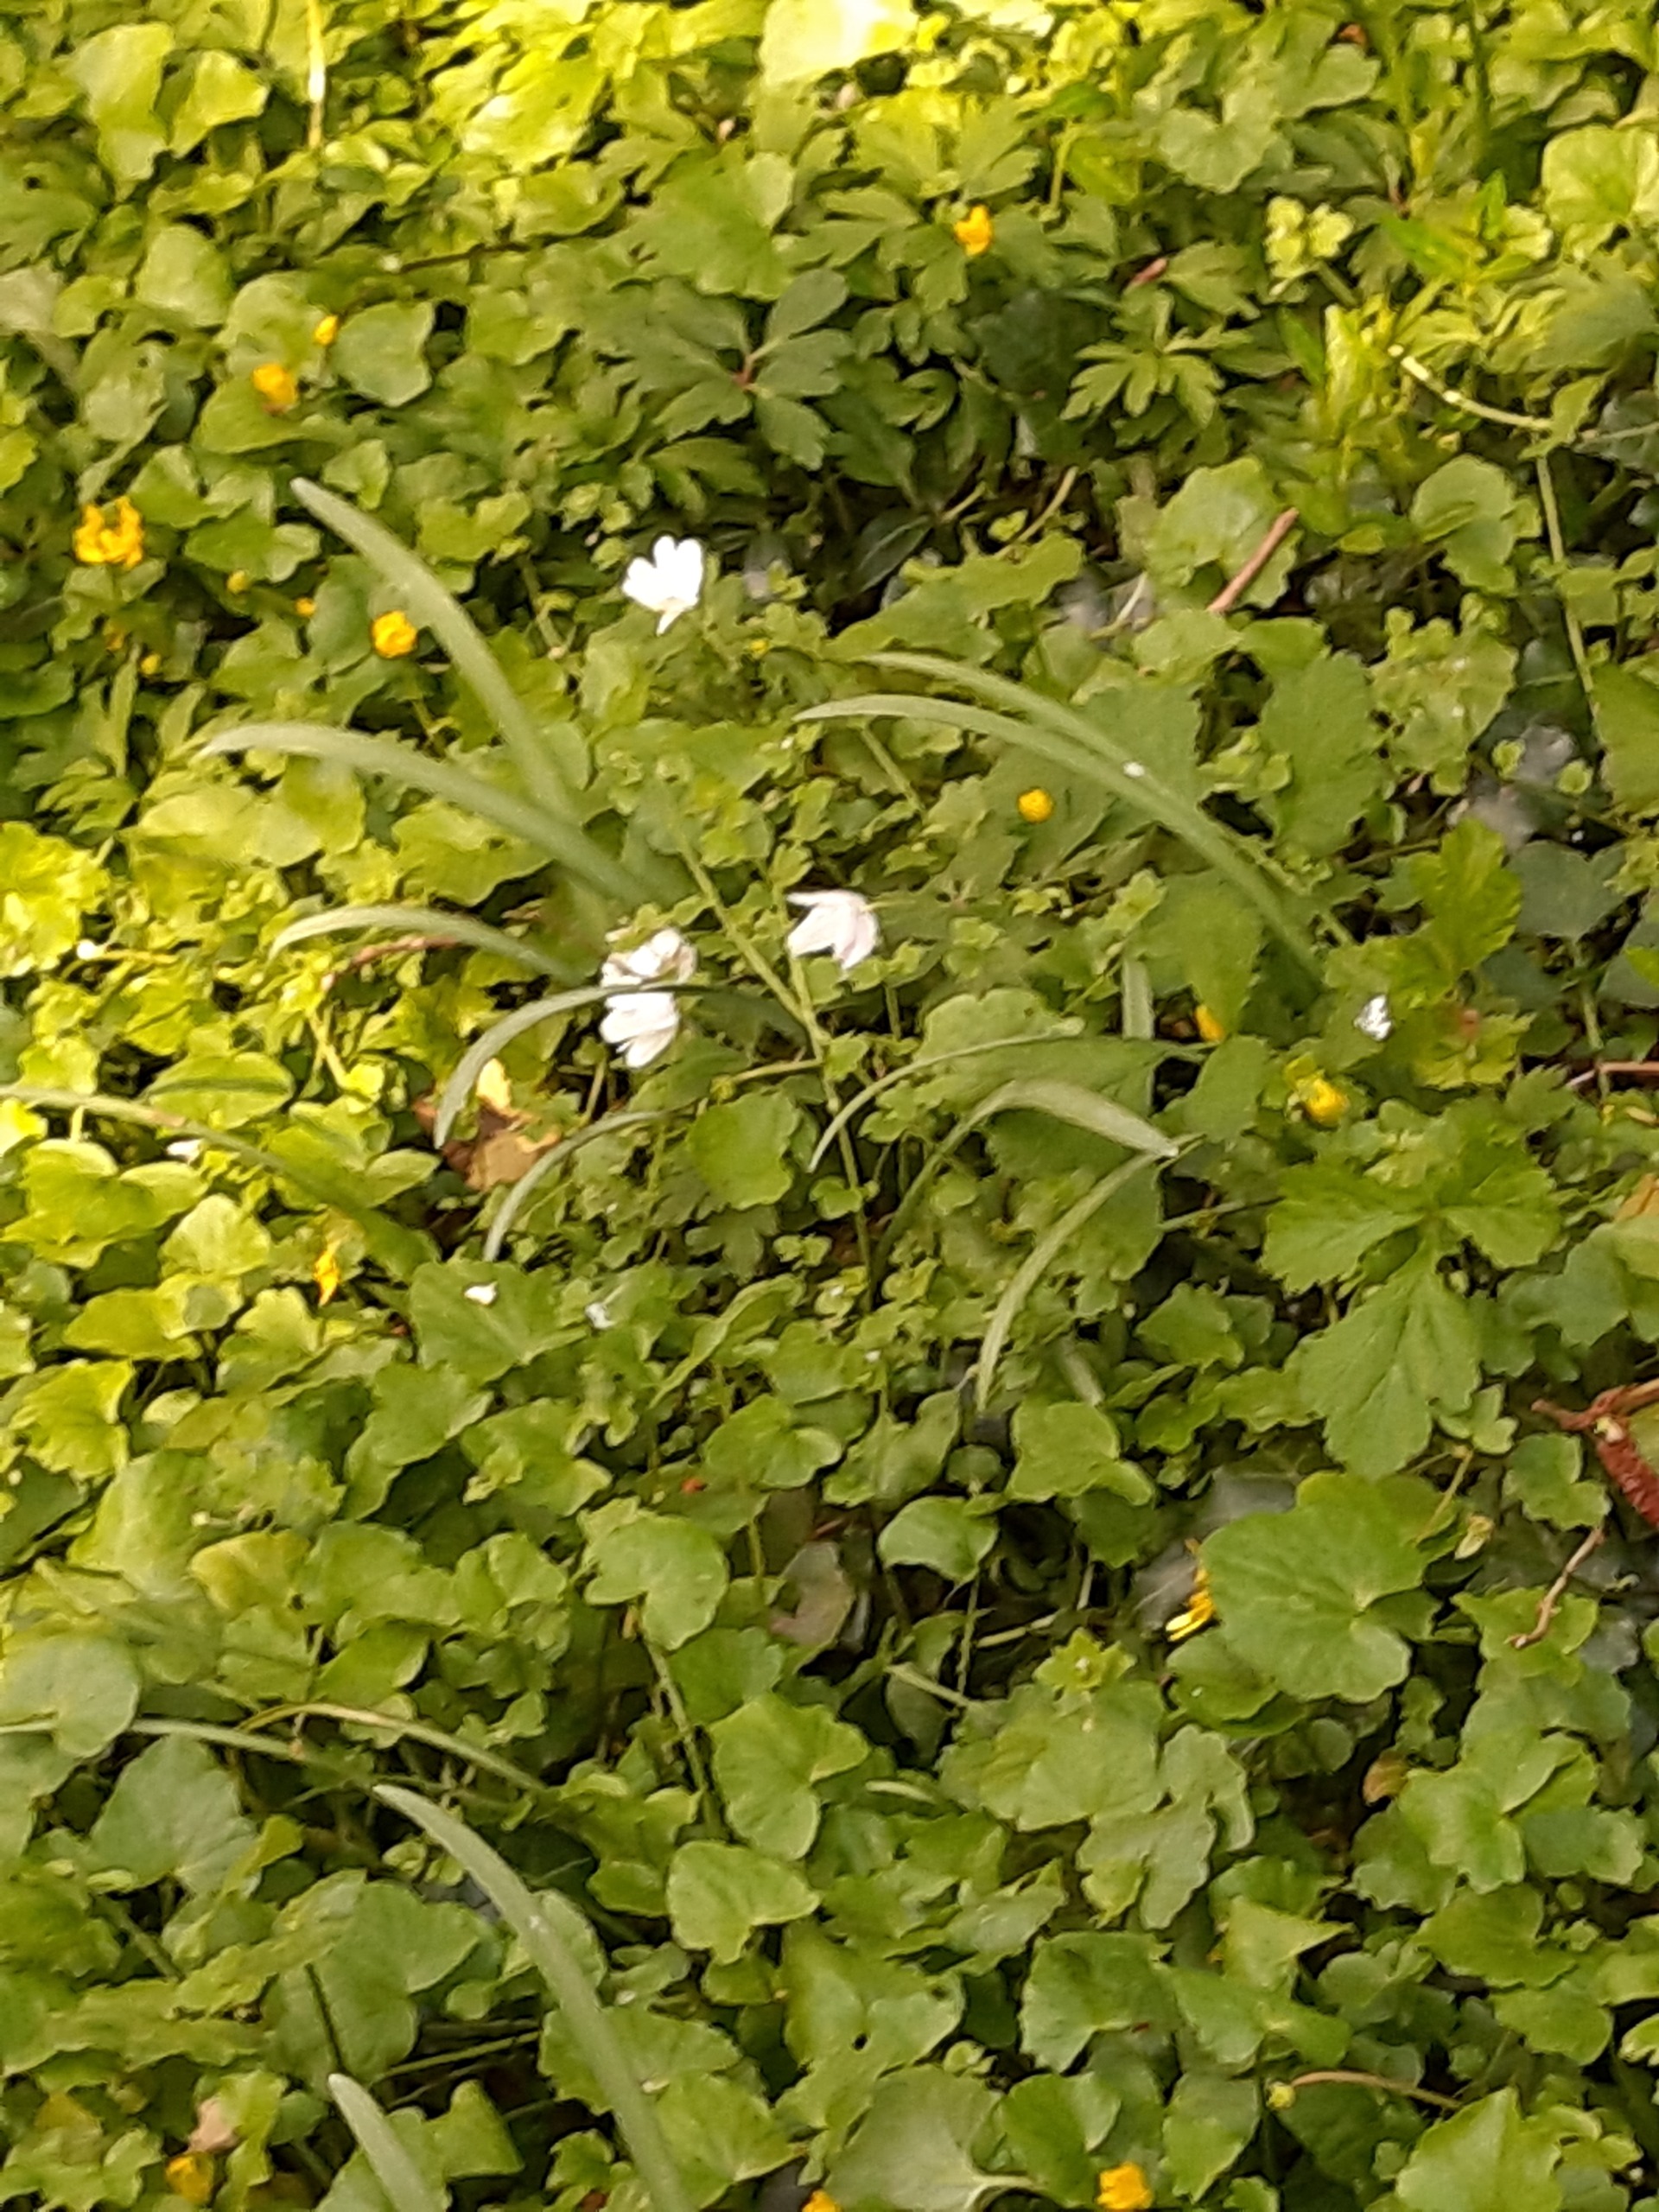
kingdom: Plantae
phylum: Tracheophyta
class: Magnoliopsida
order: Ranunculales
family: Ranunculaceae
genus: Anemone
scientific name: Anemone nemorosa
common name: Hvid anemone
